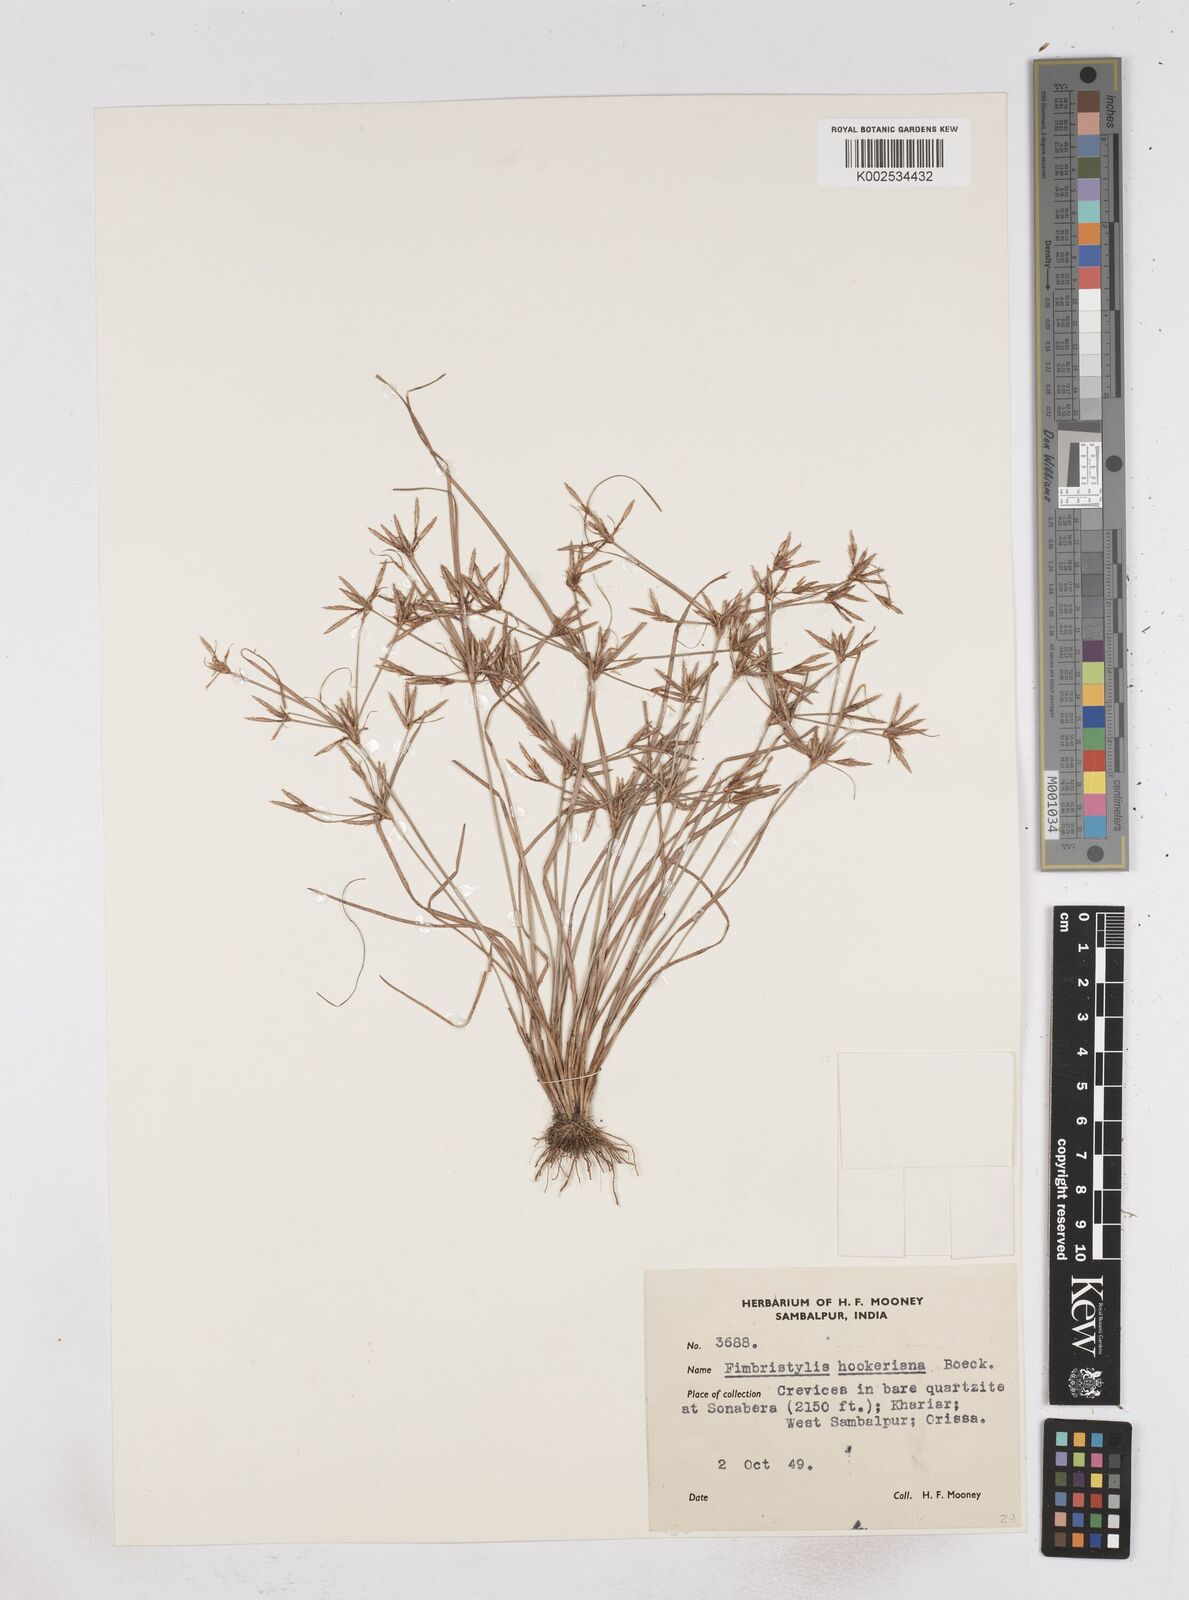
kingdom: Plantae
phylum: Tracheophyta
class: Liliopsida
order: Poales
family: Cyperaceae
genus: Fimbristylis
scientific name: Fimbristylis hookeriana
